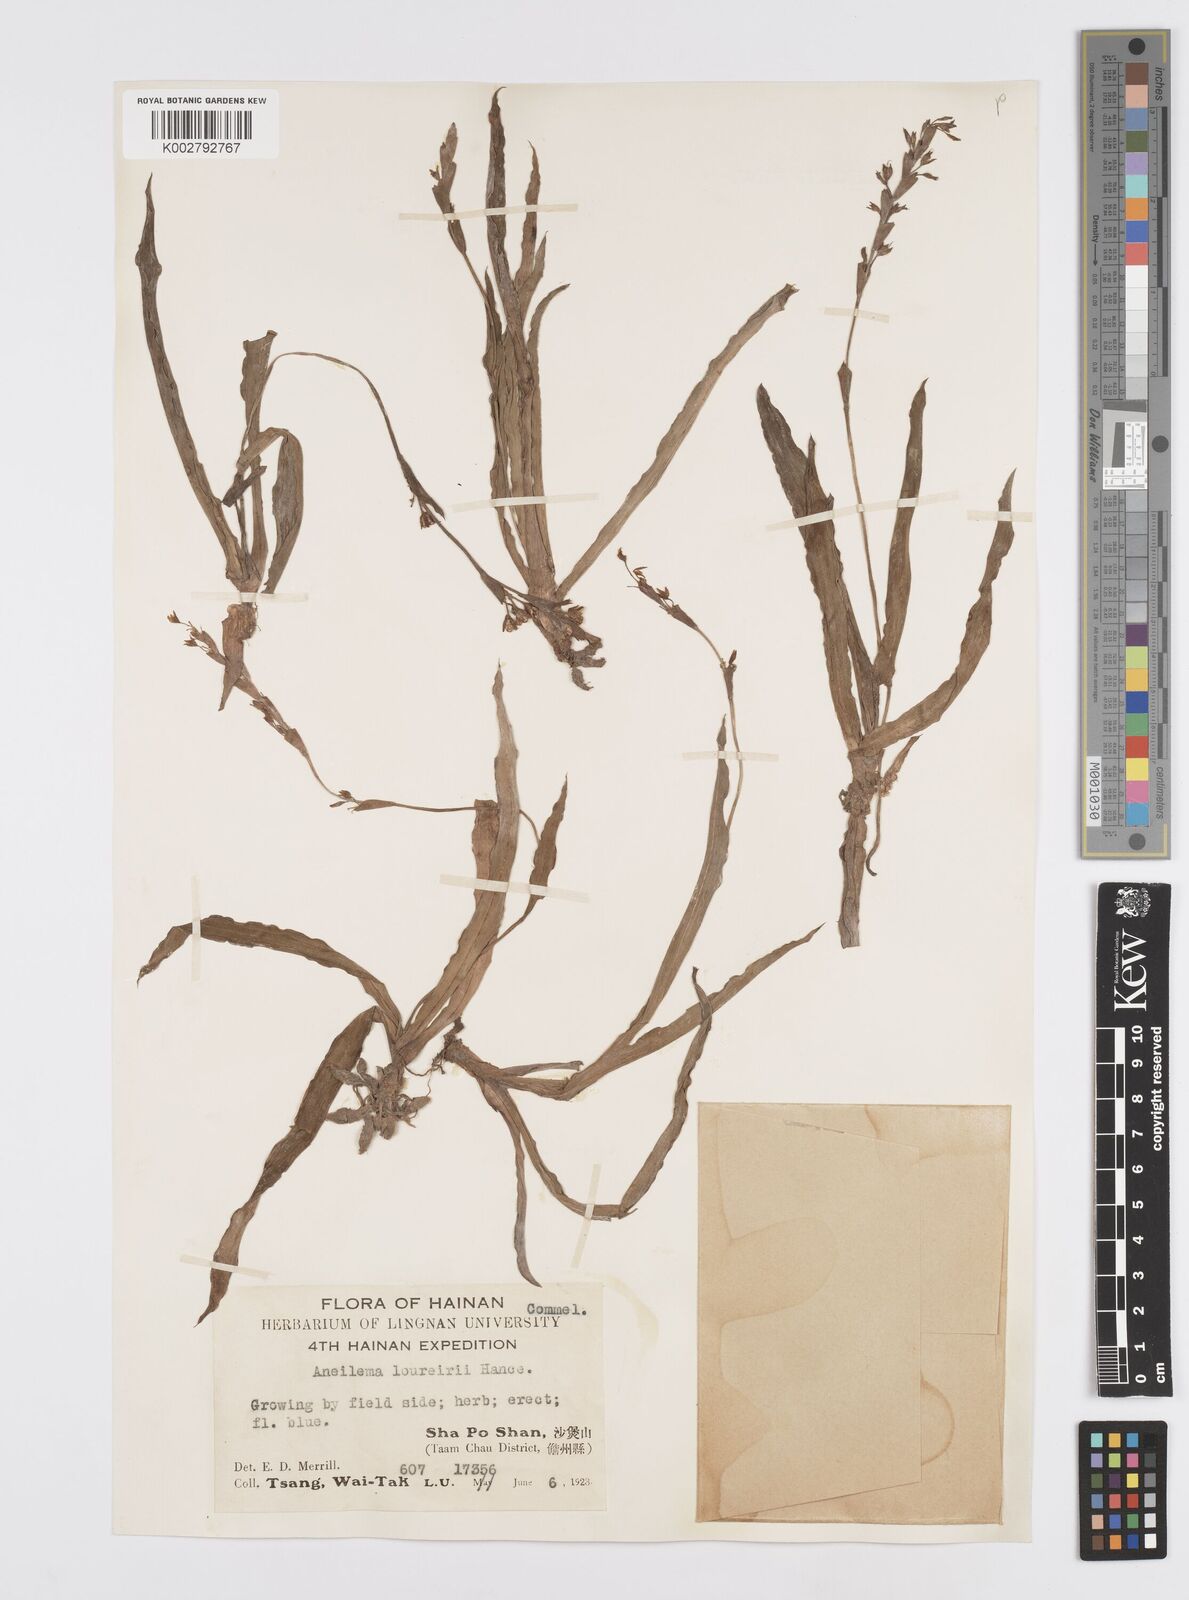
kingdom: Plantae
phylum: Tracheophyta
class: Liliopsida
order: Commelinales
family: Commelinaceae
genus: Murdannia
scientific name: Murdannia edulis
